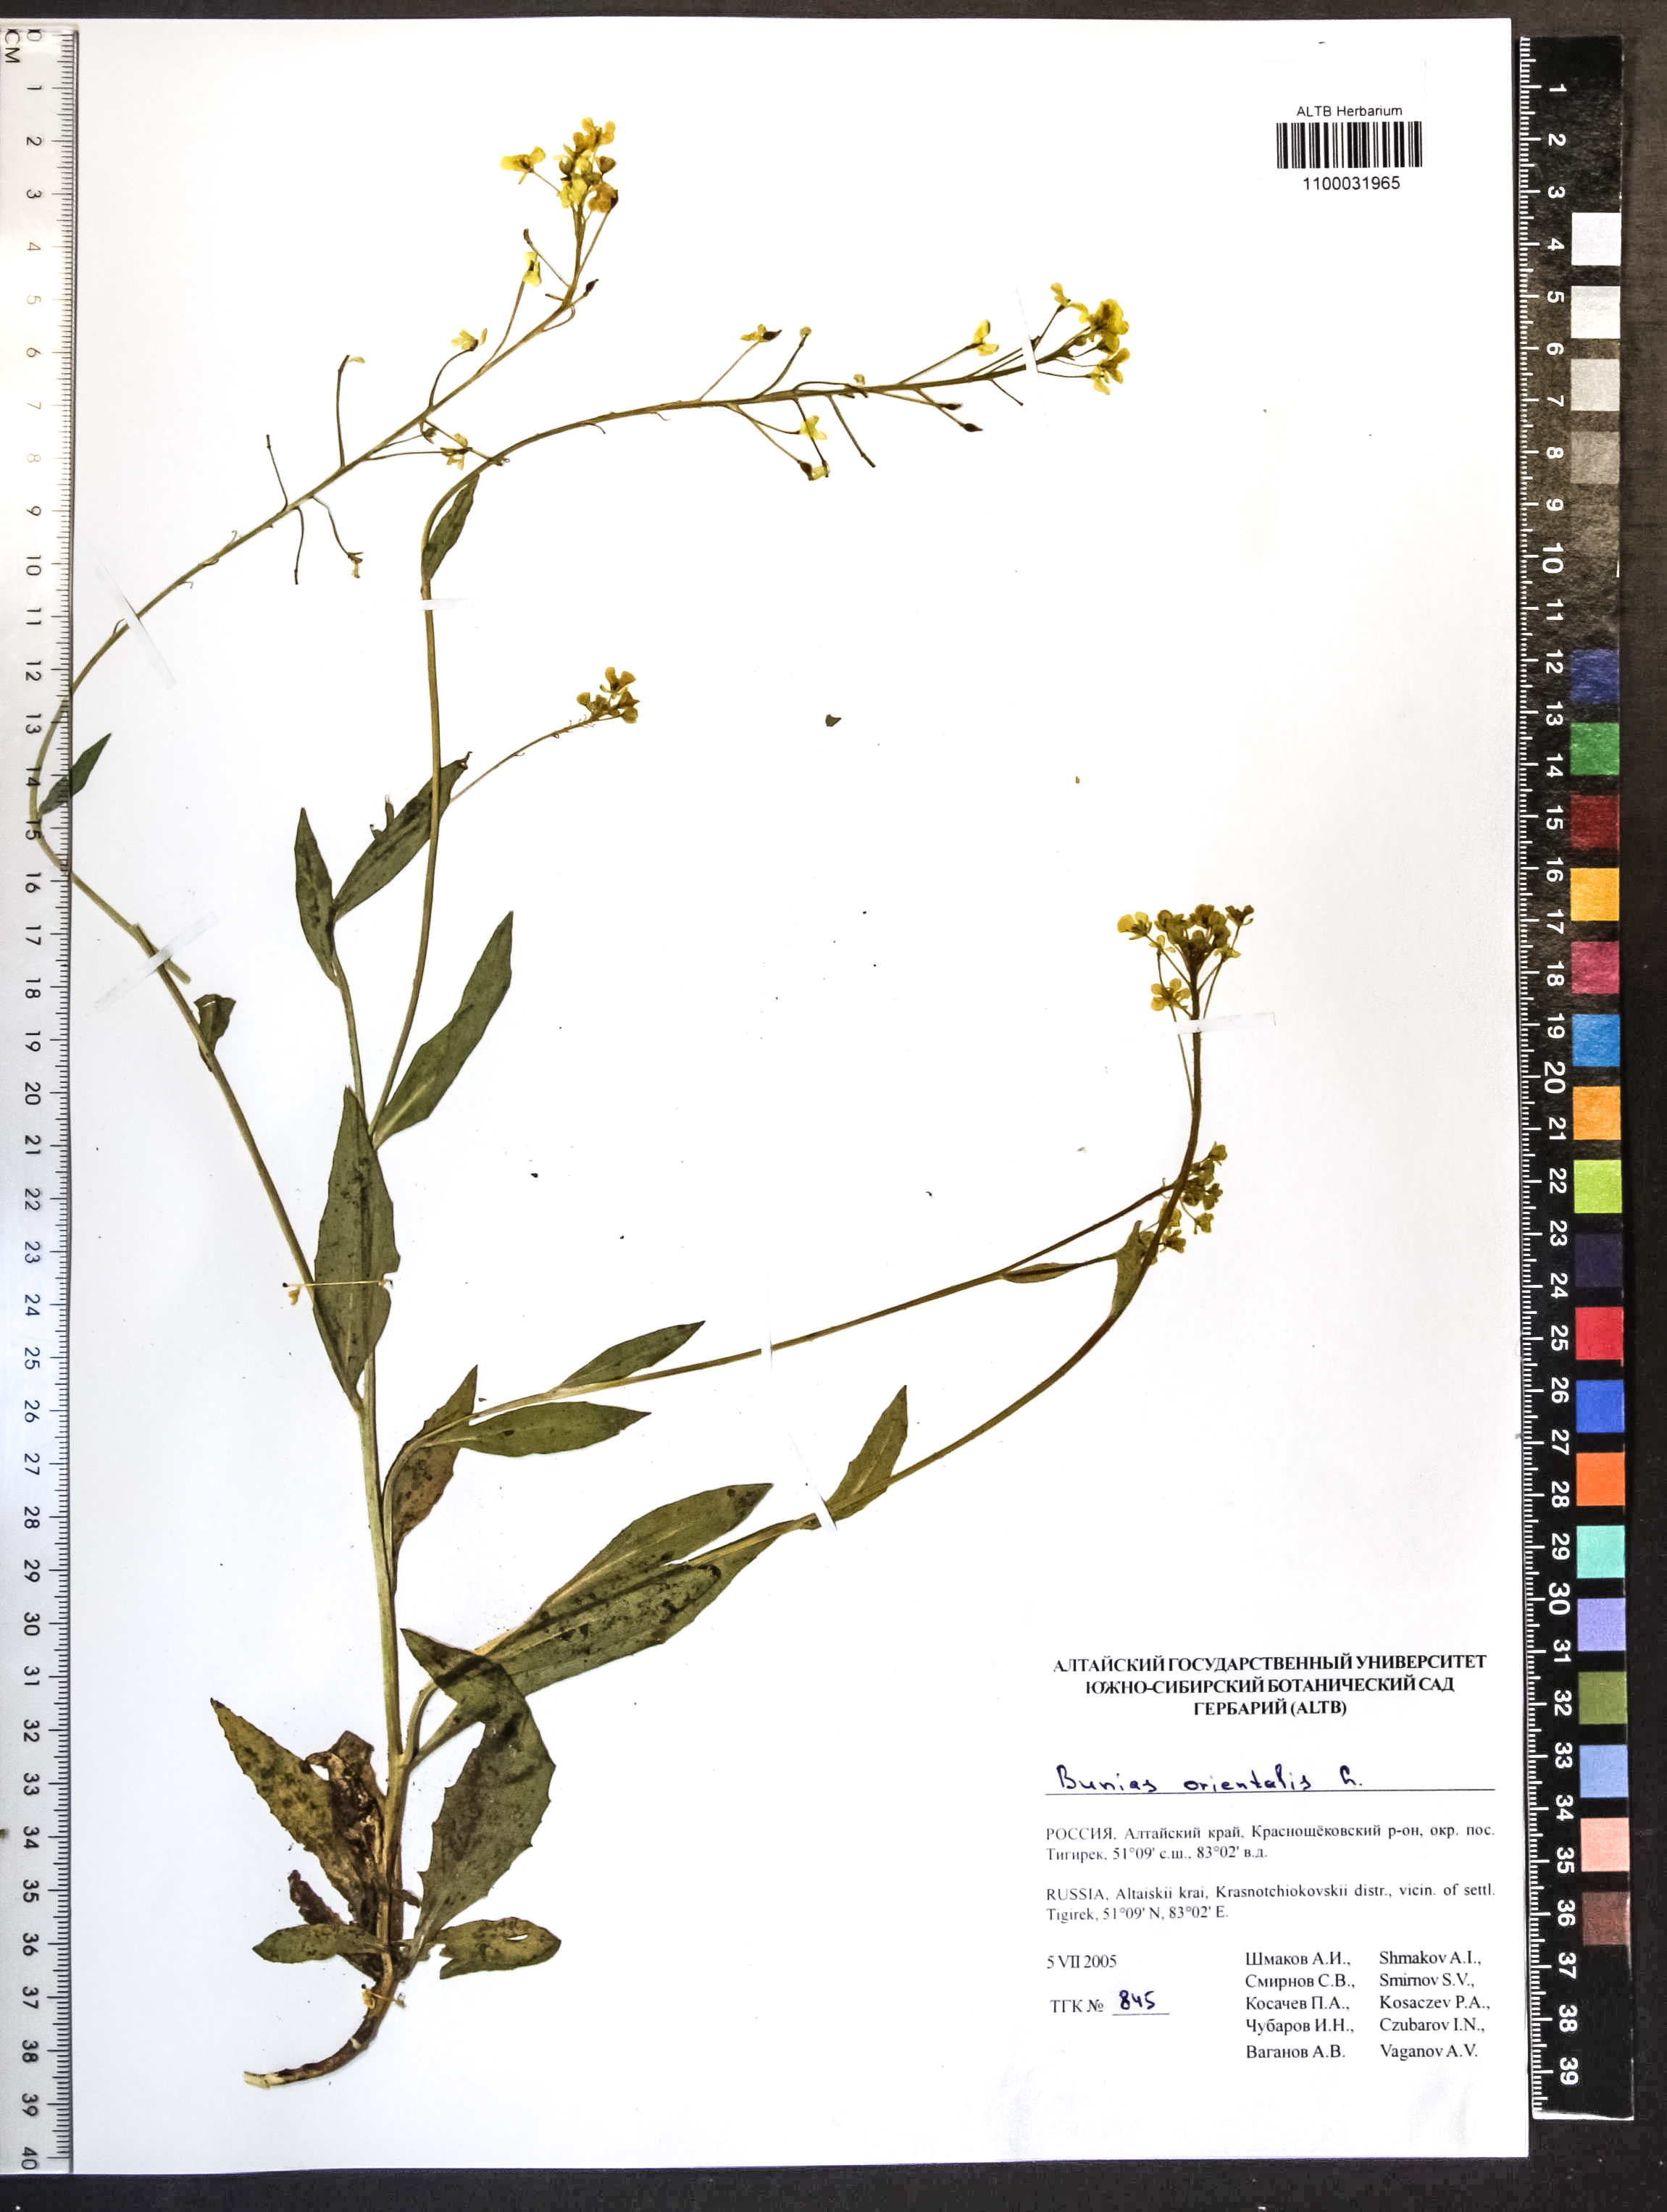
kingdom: Plantae
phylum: Tracheophyta
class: Magnoliopsida
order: Brassicales
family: Brassicaceae
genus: Bunias
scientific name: Bunias orientalis
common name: Warty-cabbage
